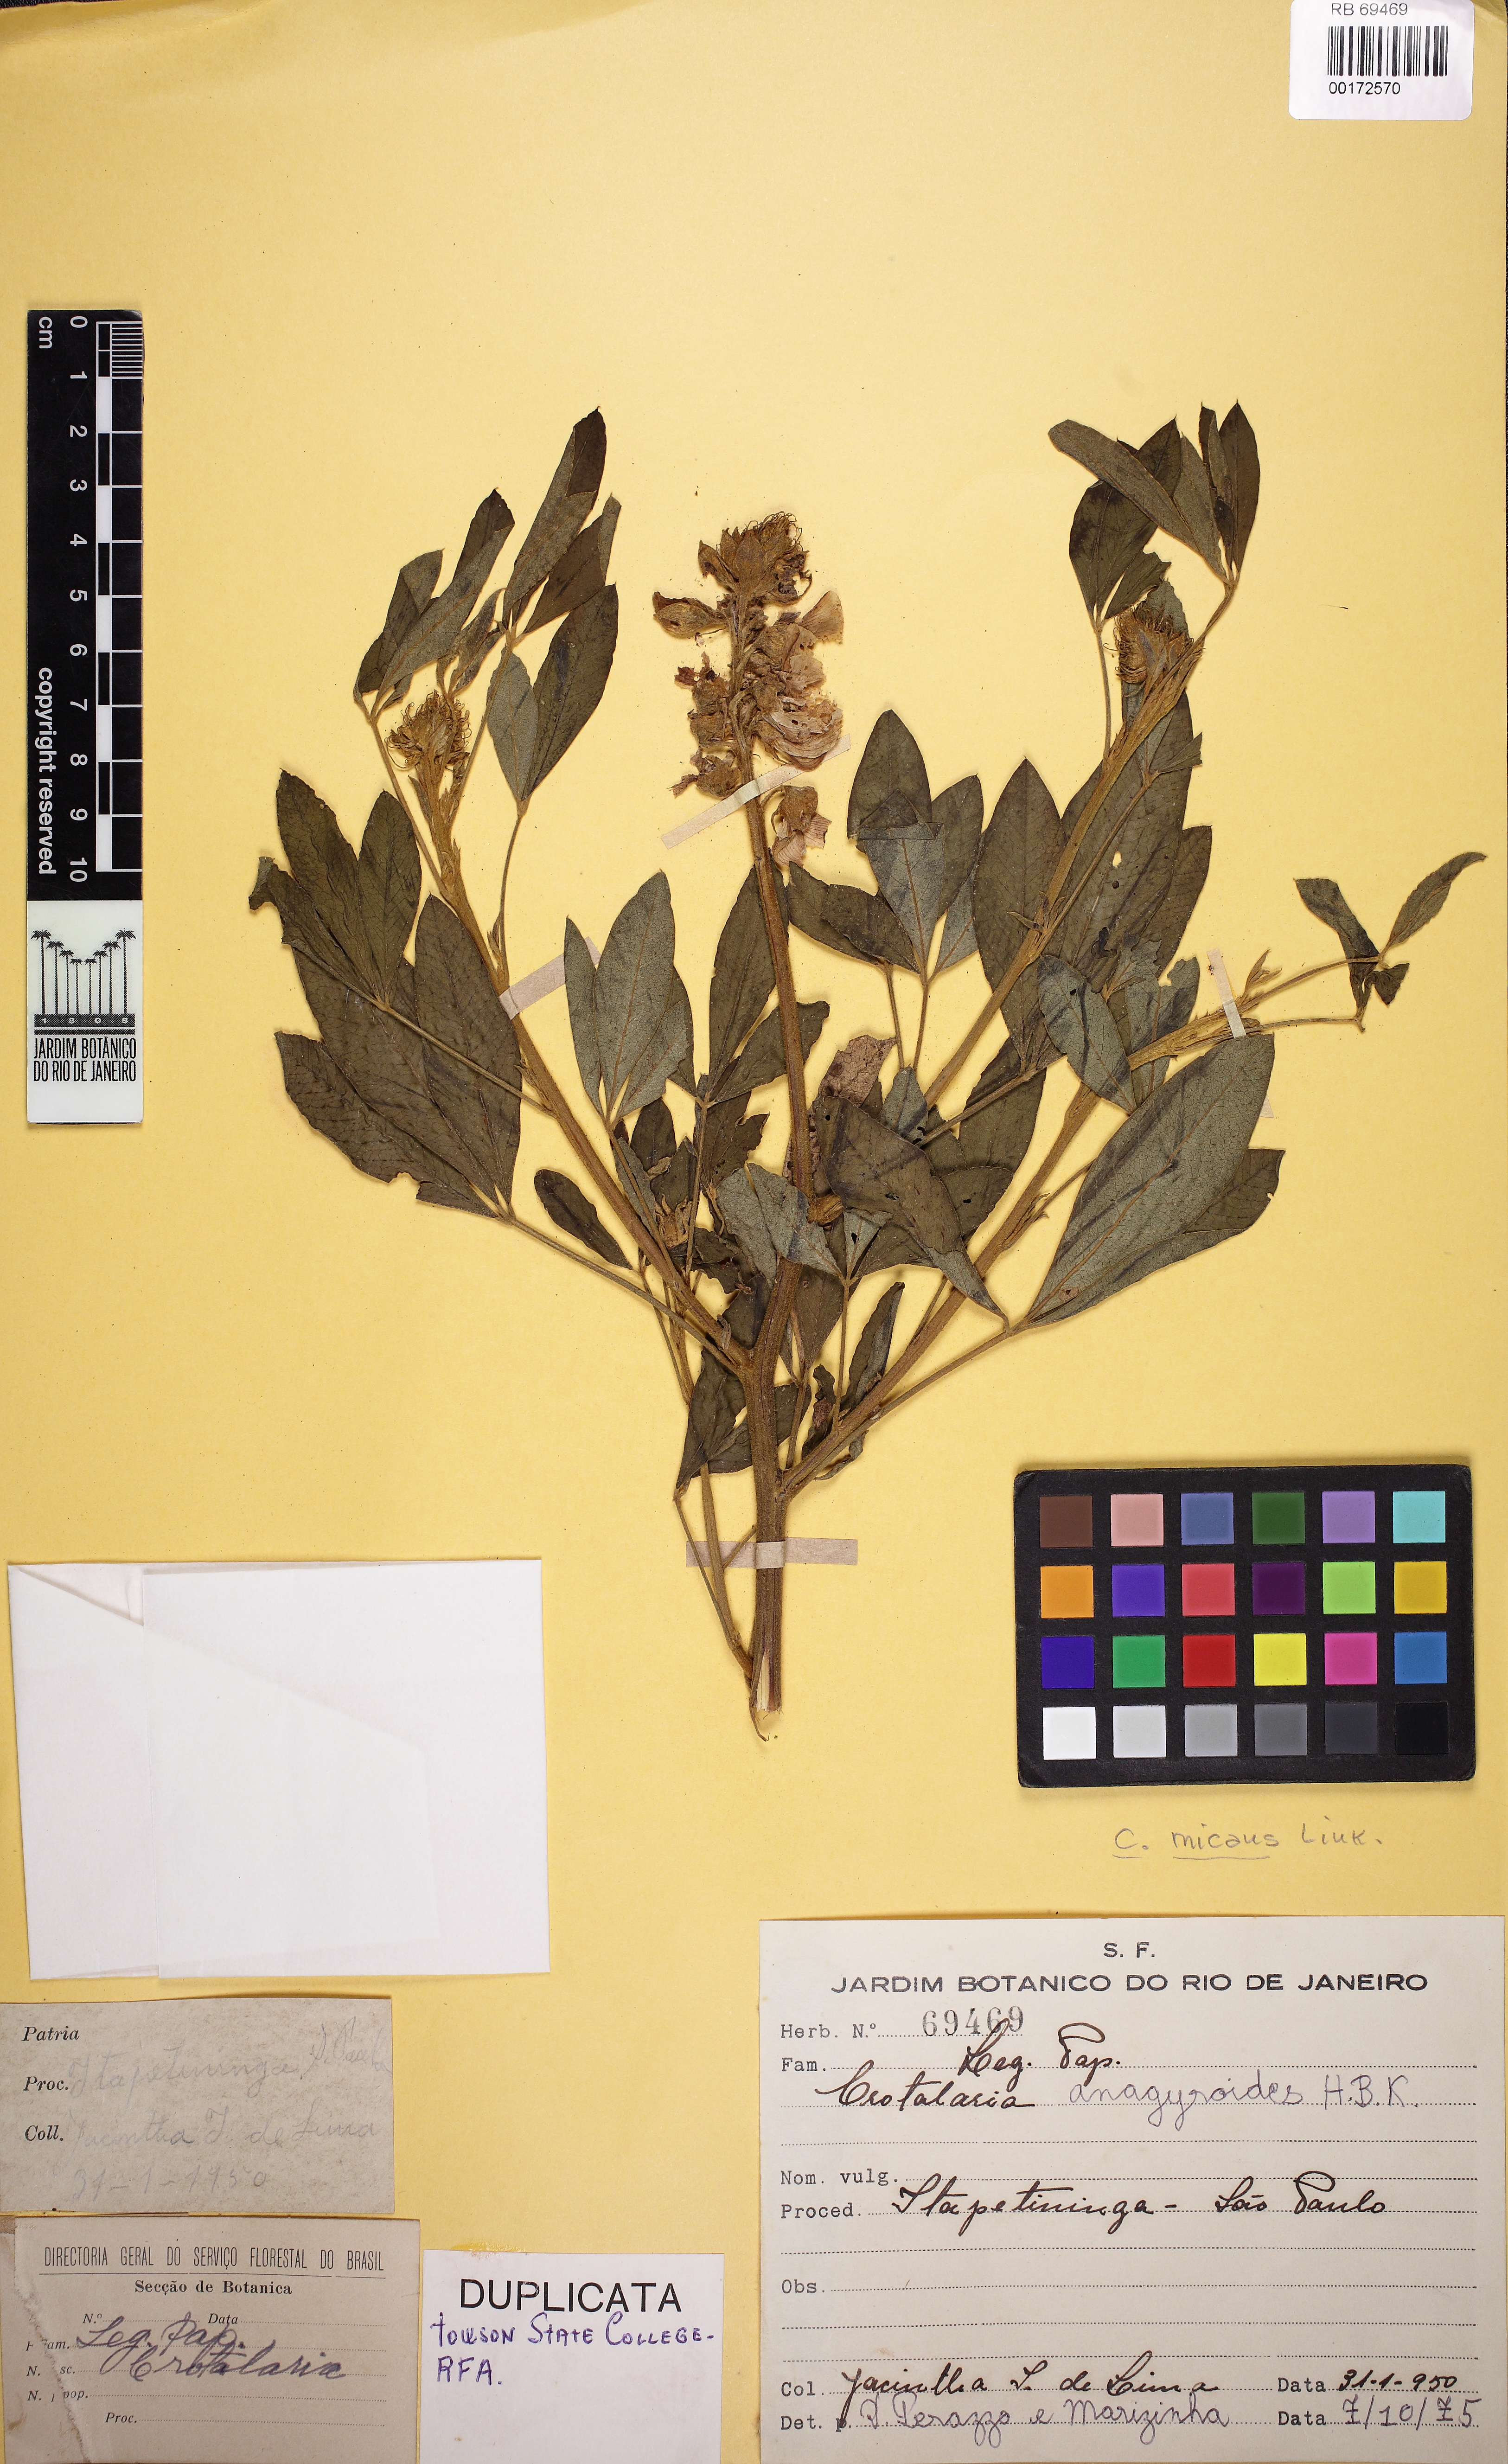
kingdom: Plantae
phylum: Tracheophyta
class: Magnoliopsida
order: Fabales
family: Fabaceae
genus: Crotalaria
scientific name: Crotalaria micans
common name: Caracas rattlebox
